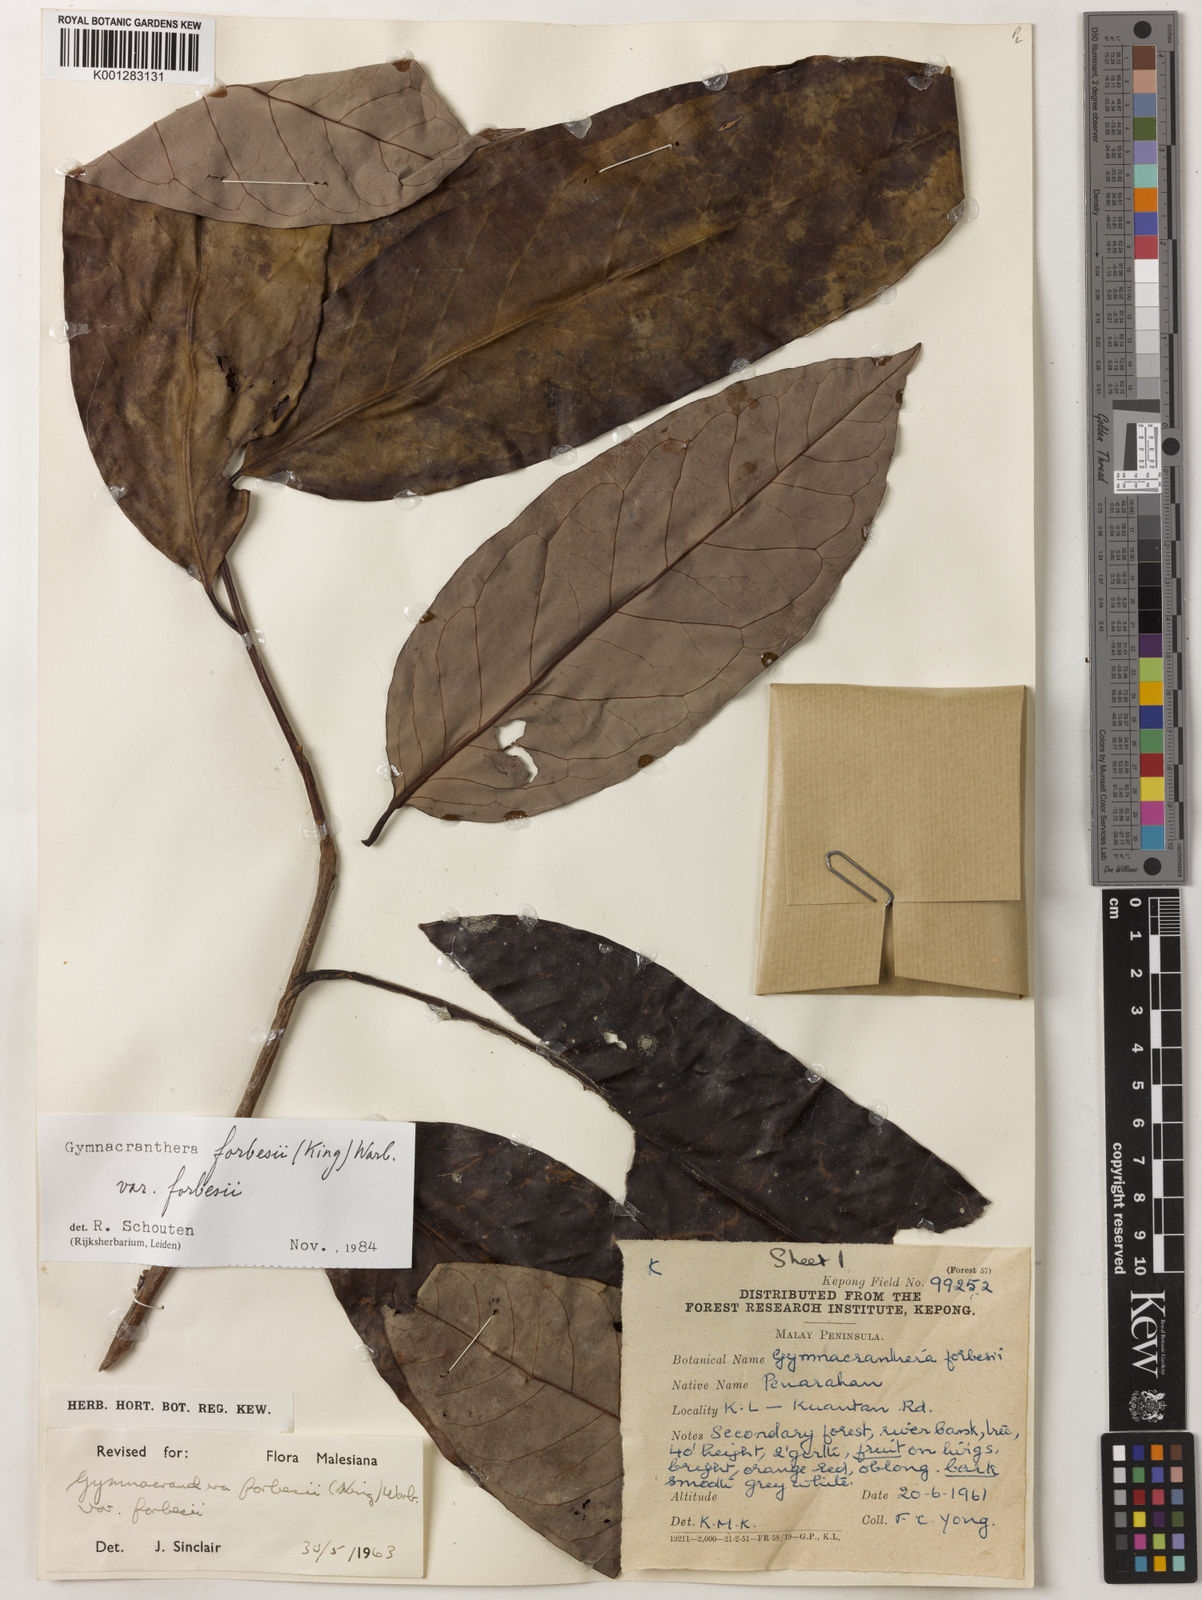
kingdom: Plantae
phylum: Tracheophyta
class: Magnoliopsida
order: Magnoliales
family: Myristicaceae
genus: Gymnacranthera
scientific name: Gymnacranthera forbesii
